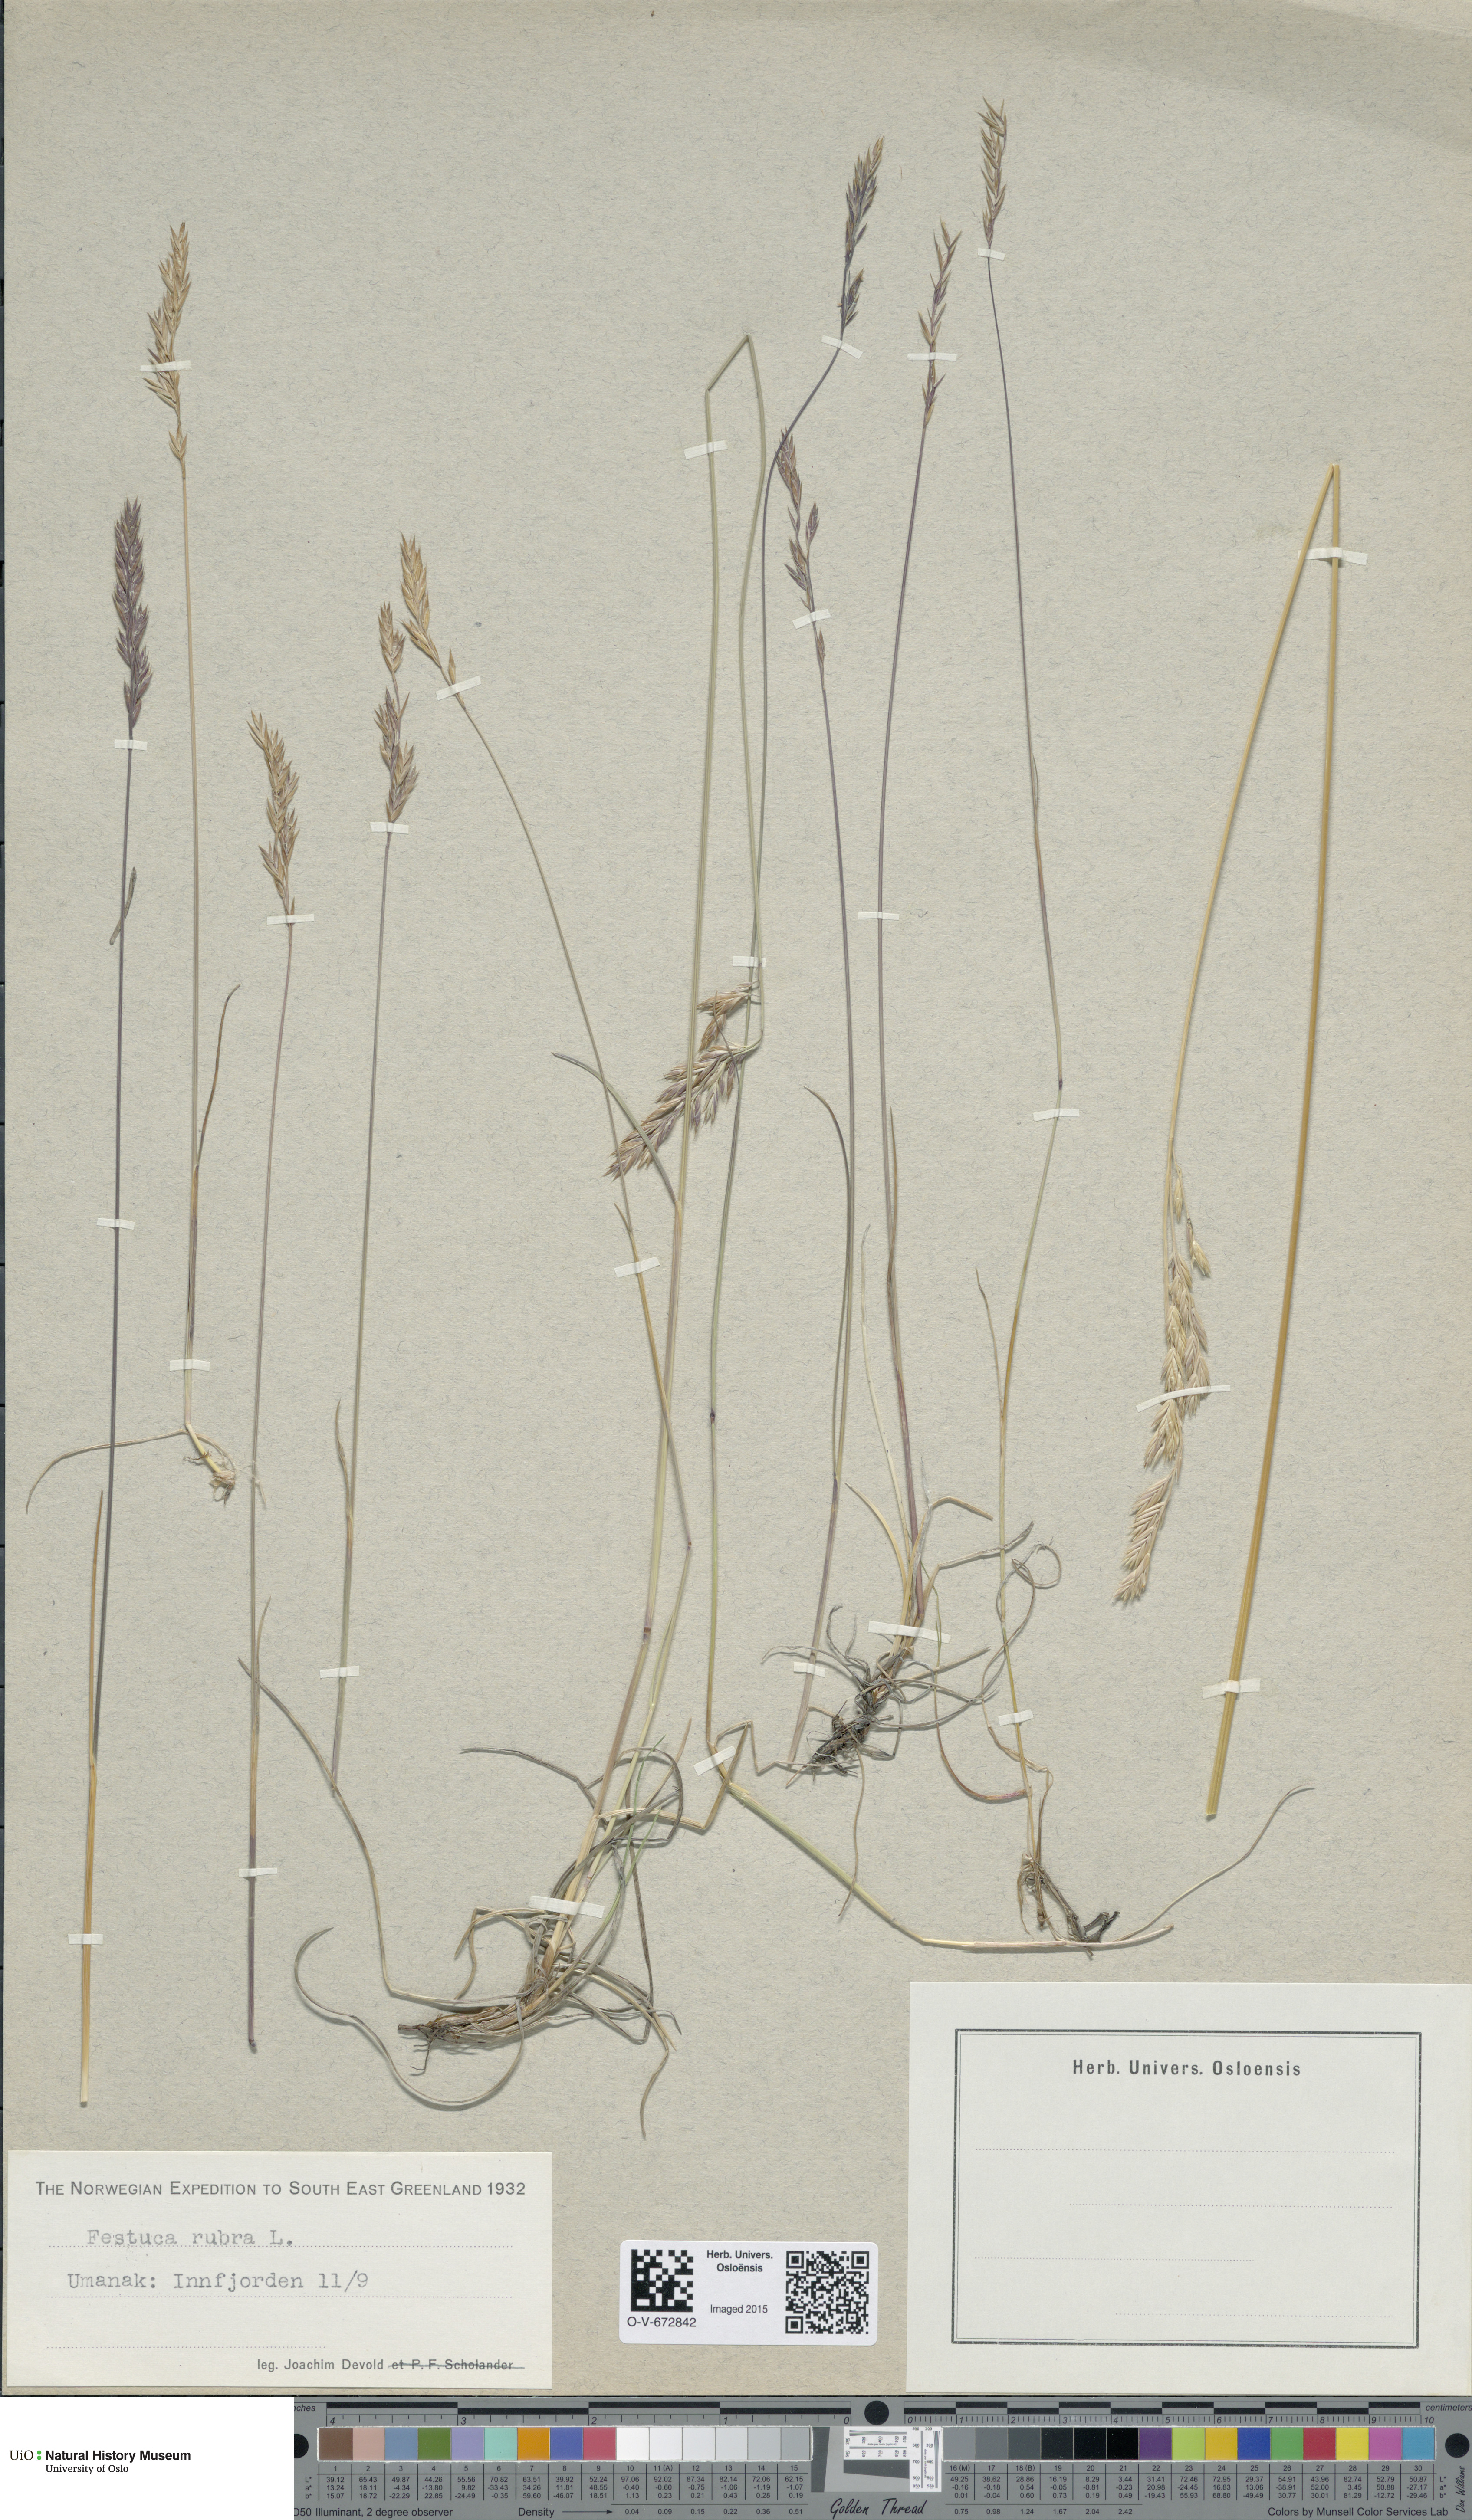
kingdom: Plantae
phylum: Tracheophyta
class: Liliopsida
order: Poales
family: Poaceae
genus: Festuca
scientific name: Festuca rubra
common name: Red fescue
